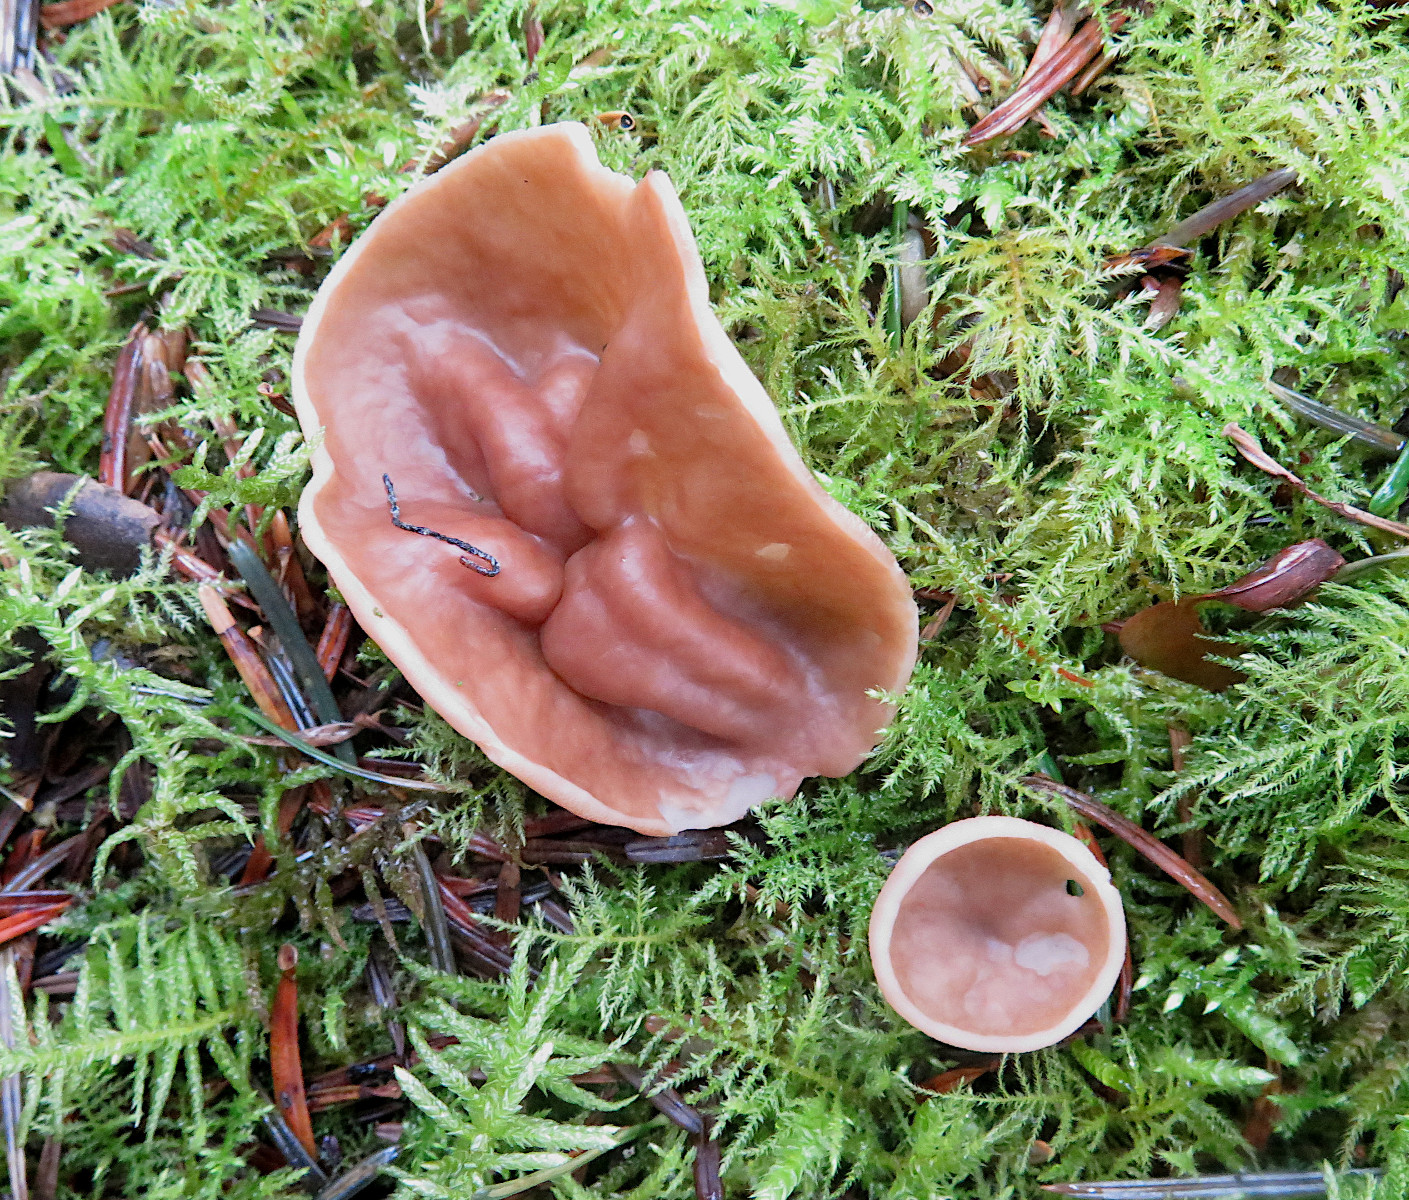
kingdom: Fungi
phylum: Ascomycota
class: Pezizomycetes
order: Pezizales
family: Discinaceae
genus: Discina
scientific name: Discina ancilis
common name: udbredt stenmorkel
